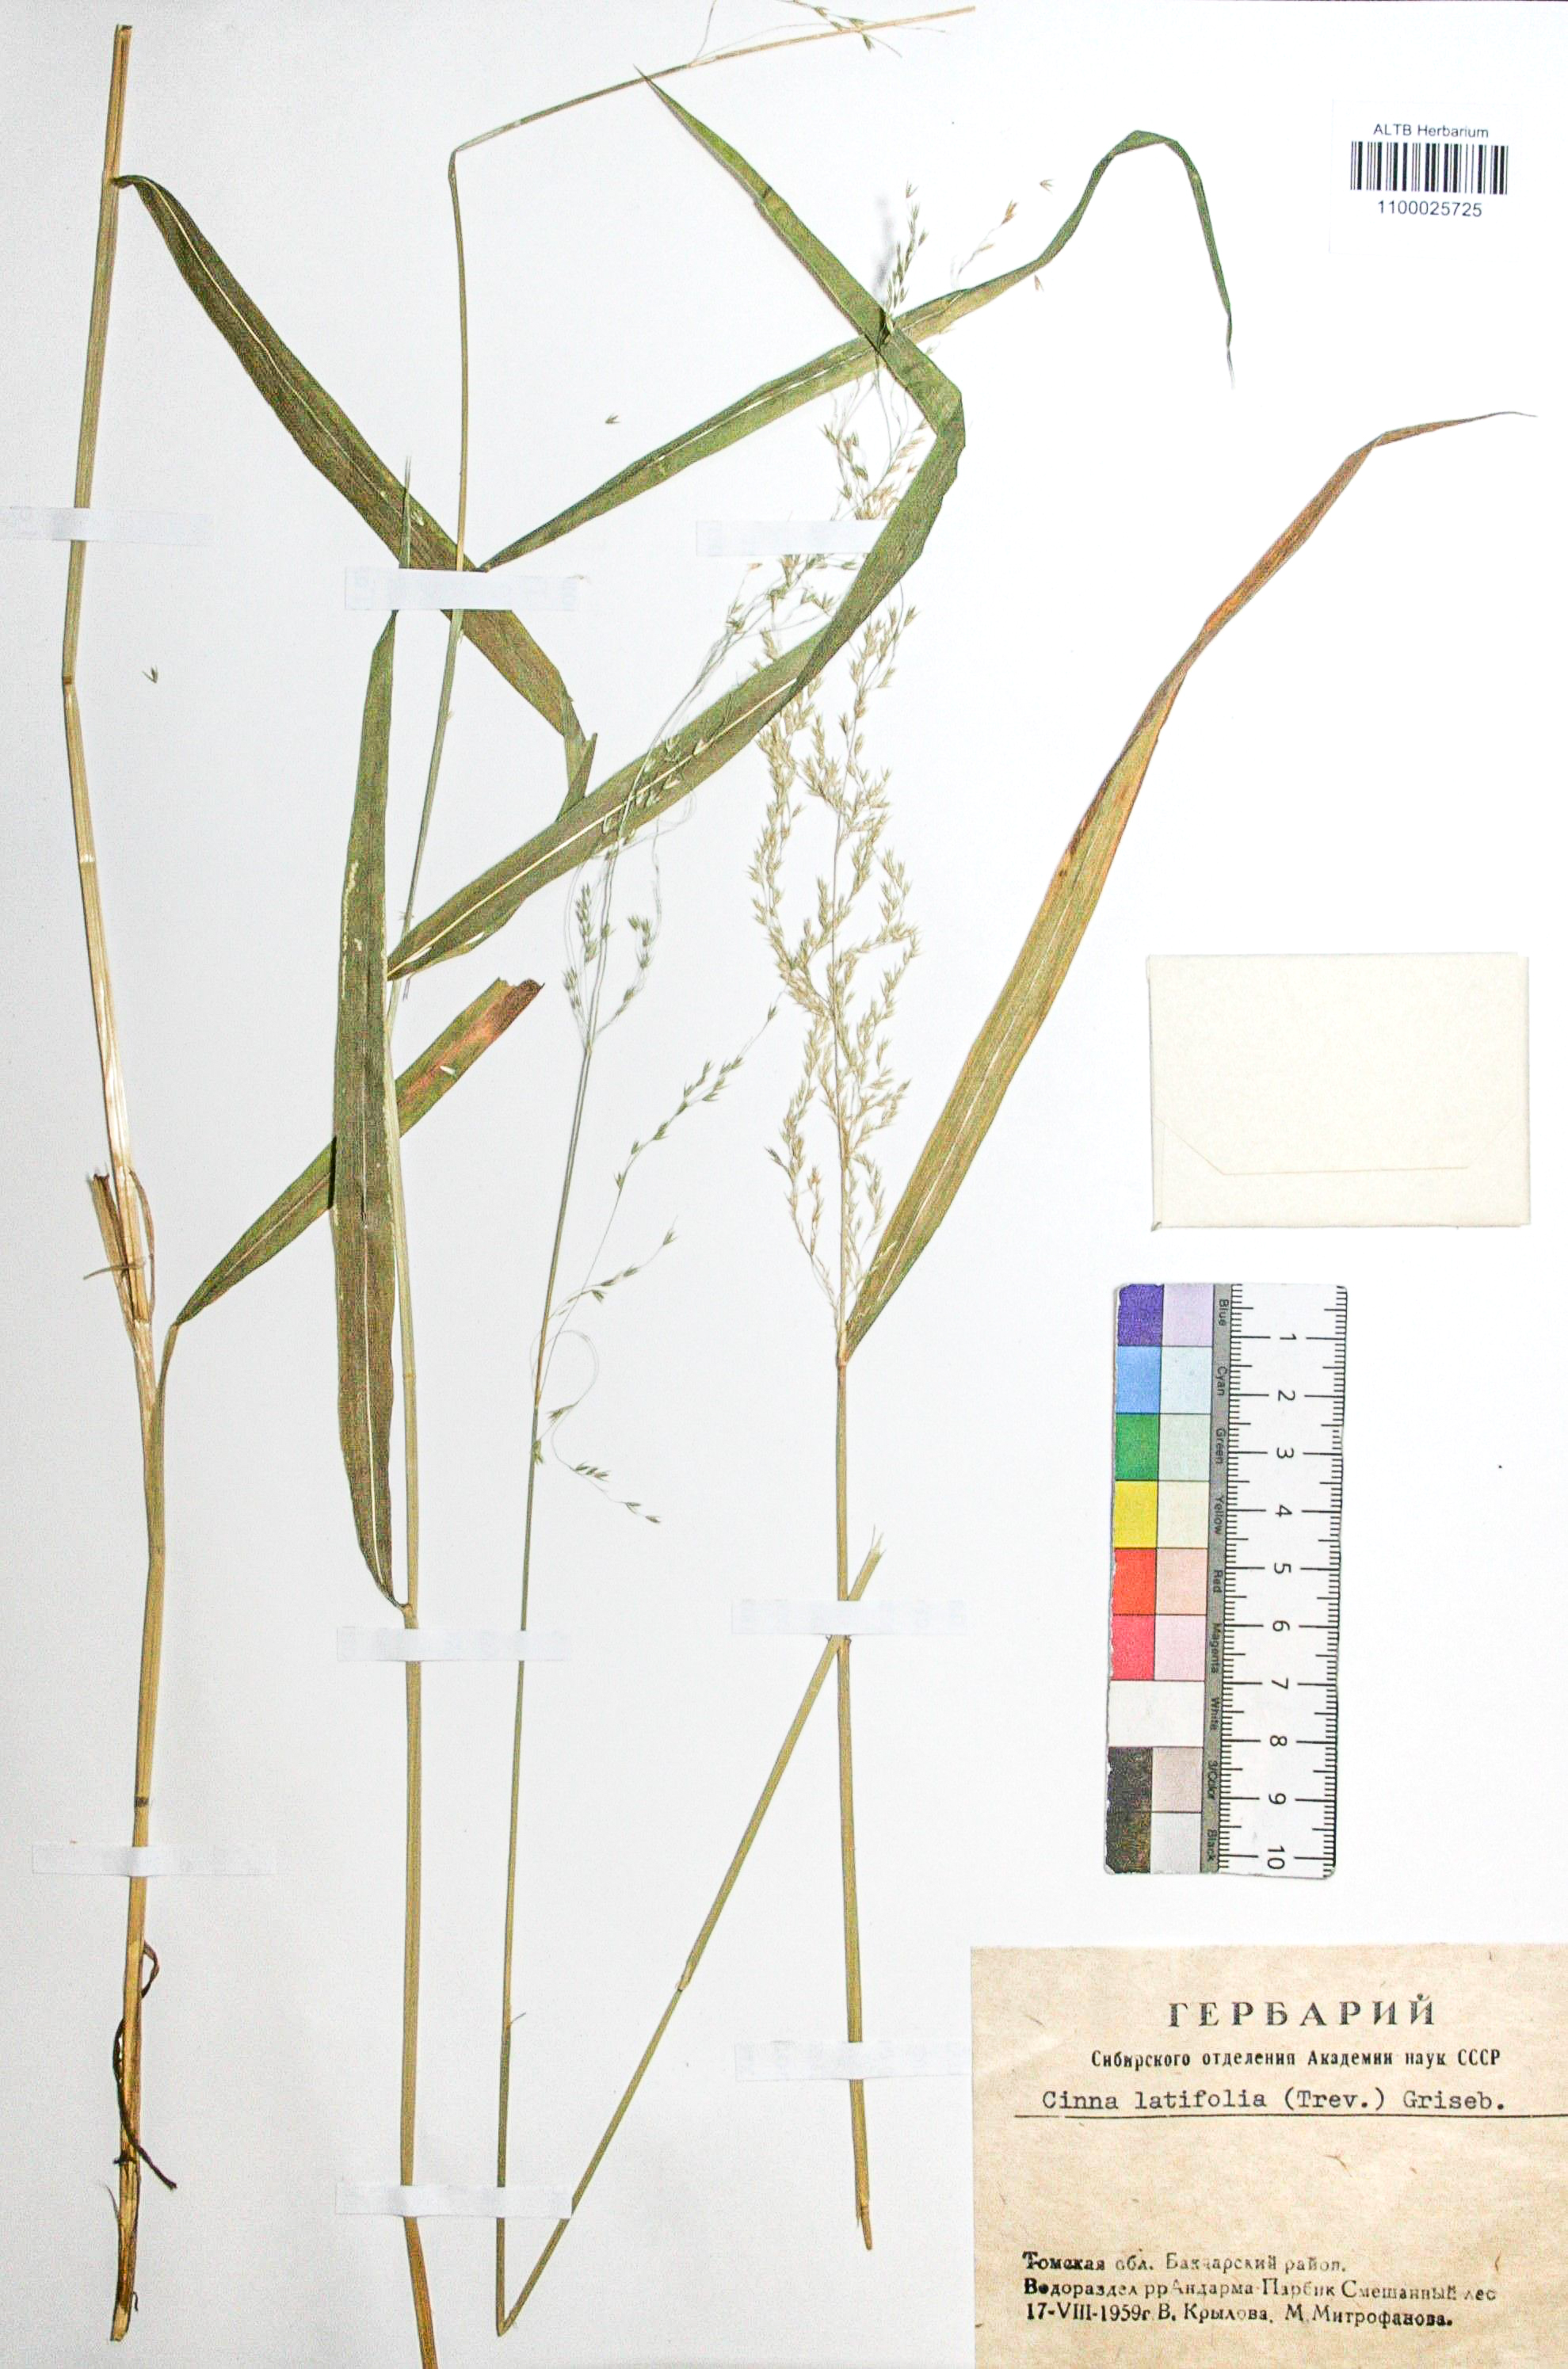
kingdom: Plantae
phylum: Tracheophyta
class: Liliopsida
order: Poales
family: Poaceae
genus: Cinna
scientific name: Cinna latifolia
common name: Drooping woodreed
